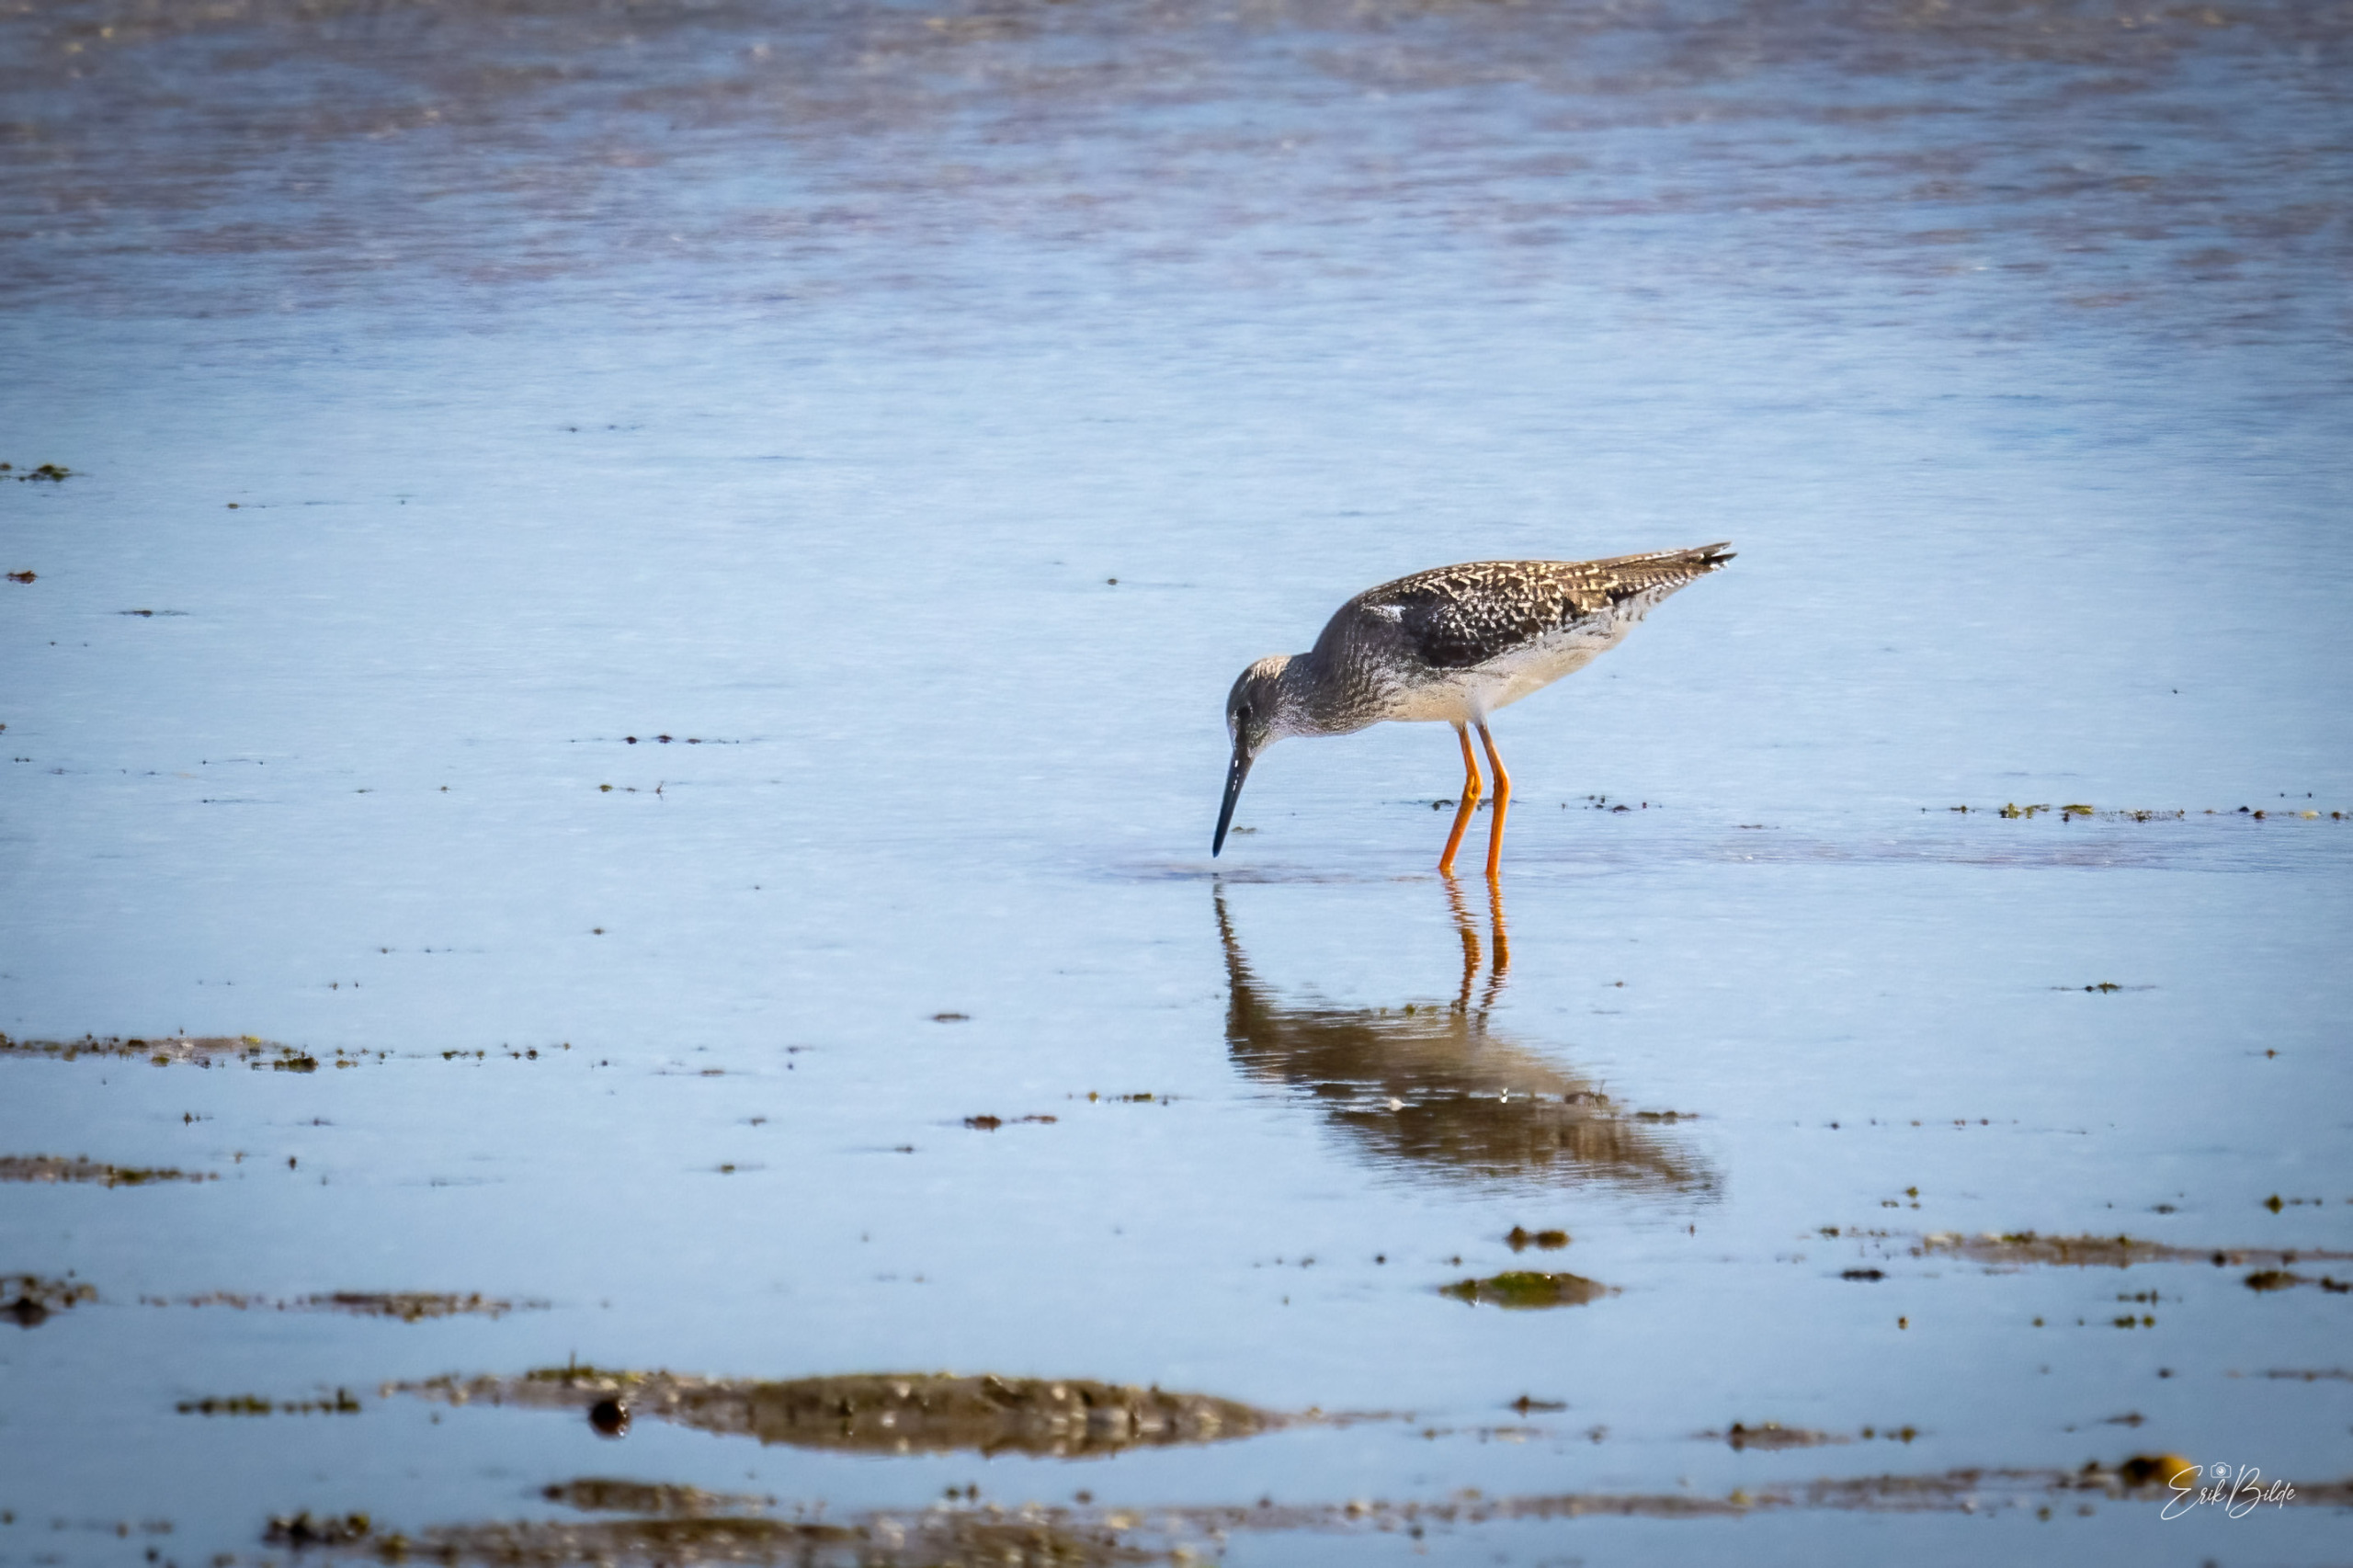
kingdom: Animalia
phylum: Chordata
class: Aves
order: Charadriiformes
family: Scolopacidae
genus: Tringa
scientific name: Tringa totanus
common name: Rødben
